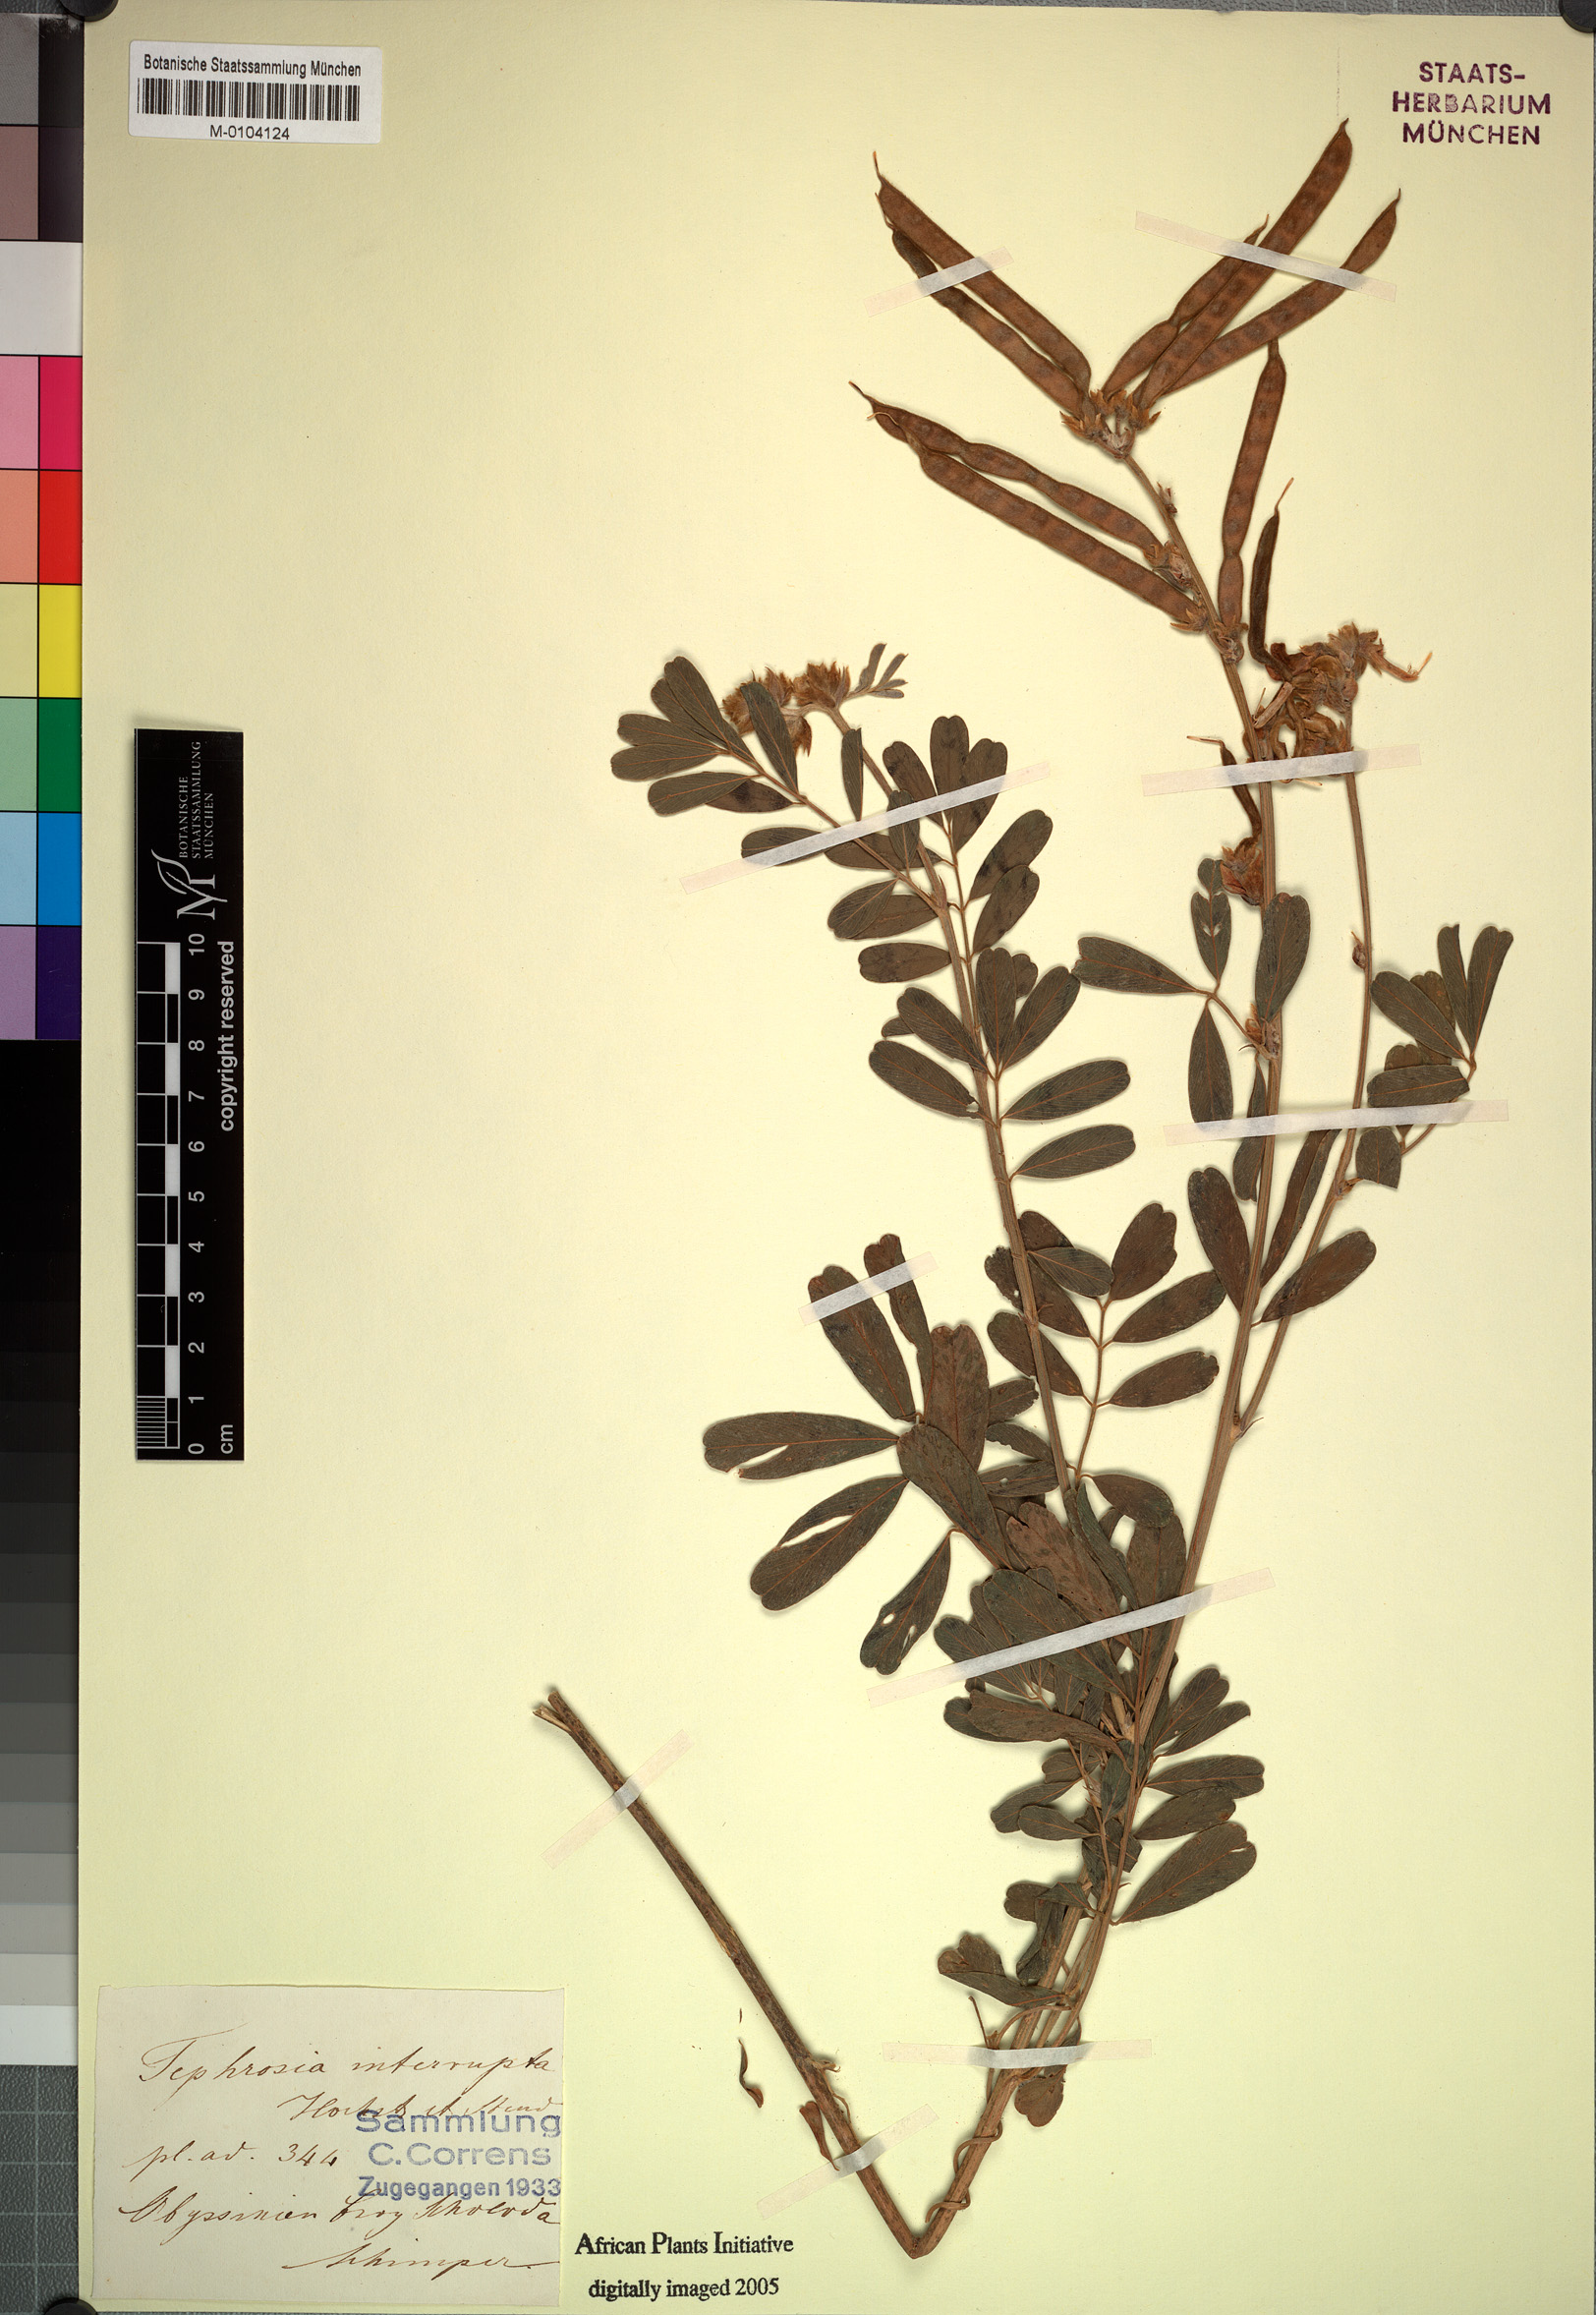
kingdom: Plantae
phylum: Tracheophyta
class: Magnoliopsida
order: Fabales
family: Fabaceae
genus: Tephrosia
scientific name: Tephrosia interrupta
